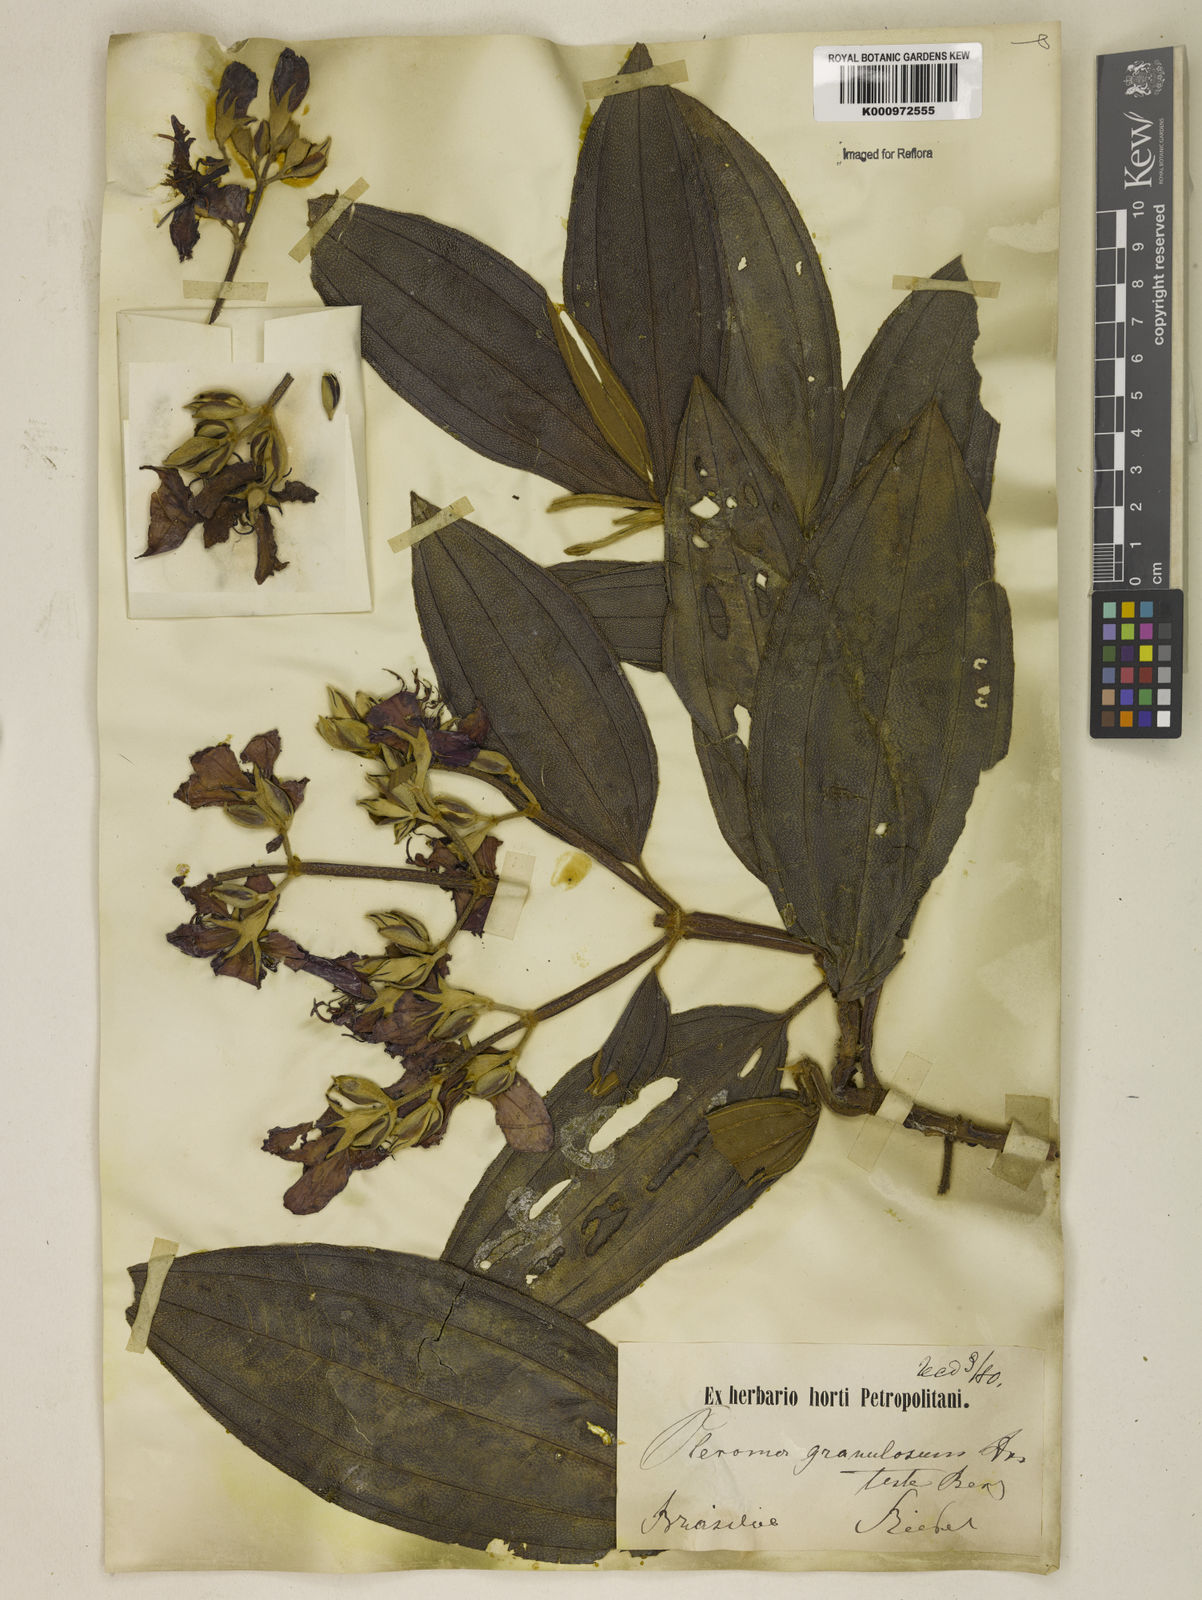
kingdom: Plantae
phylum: Tracheophyta
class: Magnoliopsida
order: Myrtales
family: Melastomataceae
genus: Pleroma
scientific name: Pleroma granulosum
